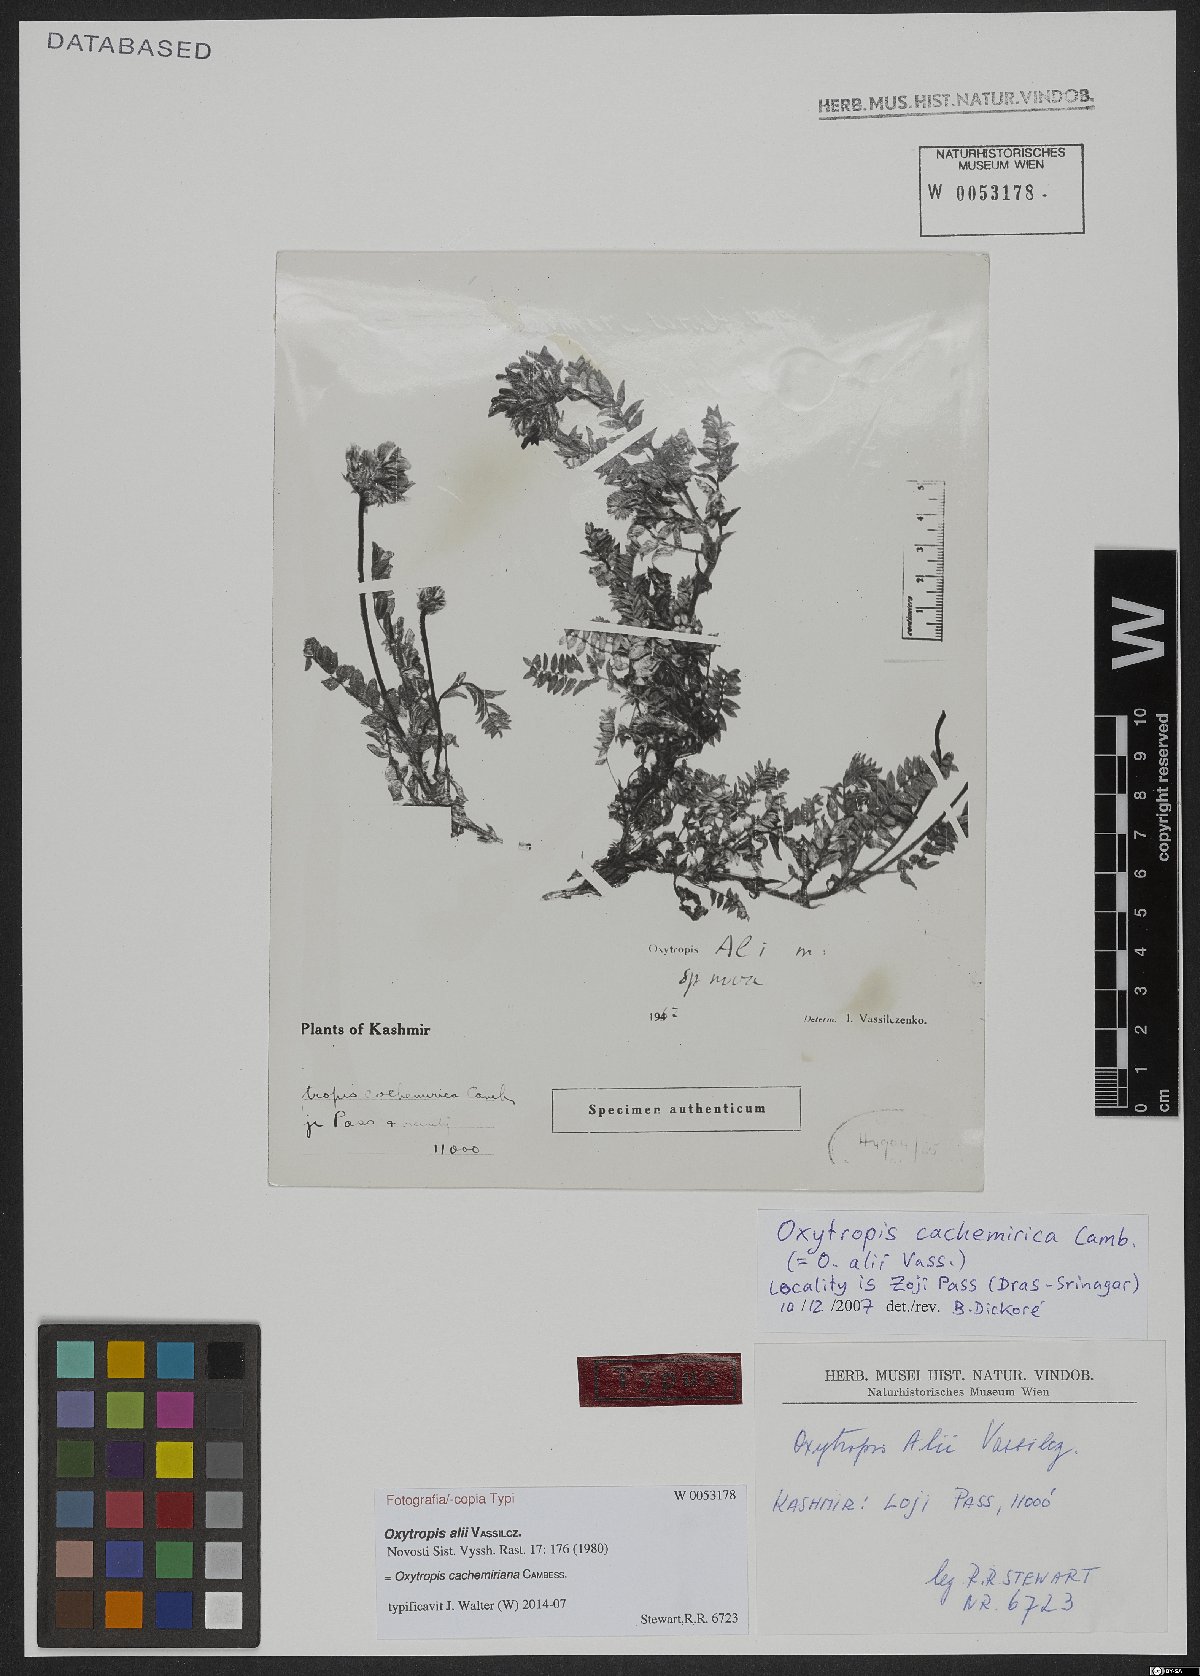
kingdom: Plantae
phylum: Tracheophyta
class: Magnoliopsida
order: Fabales
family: Fabaceae
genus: Oxytropis
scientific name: Oxytropis cachemiriana
